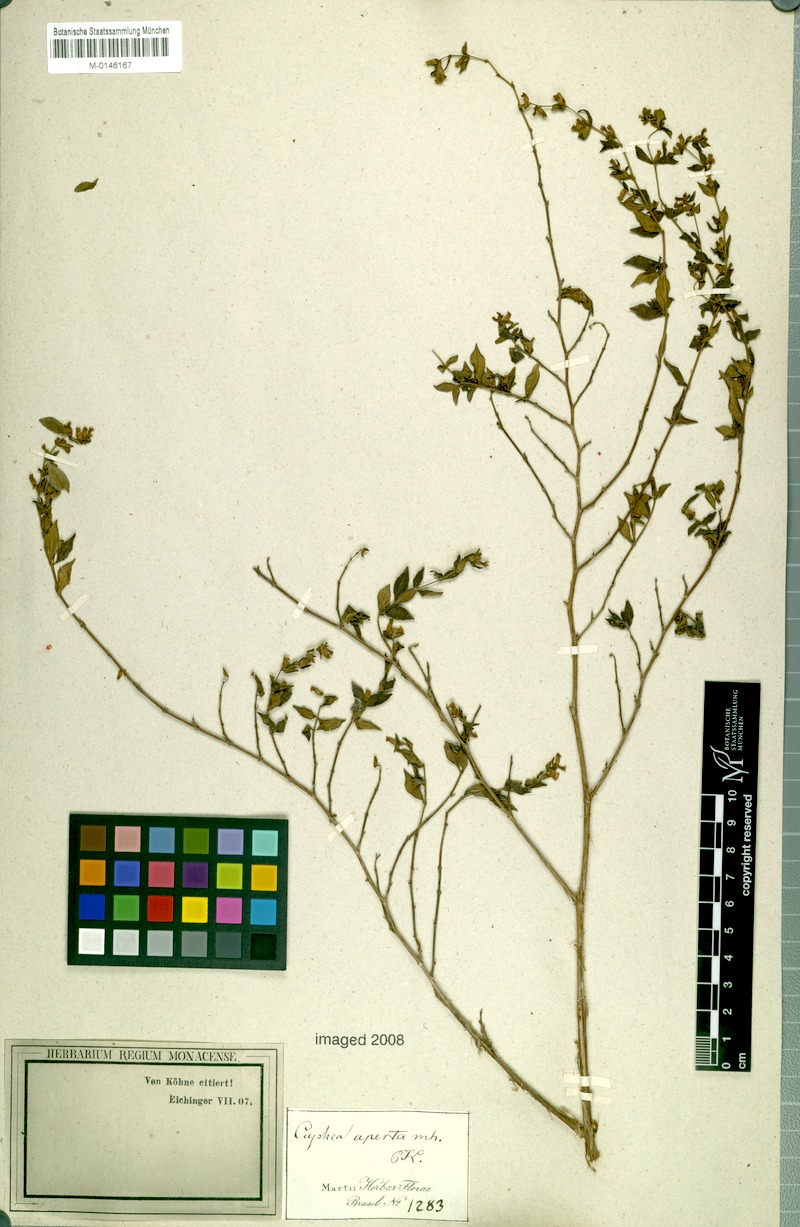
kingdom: Plantae
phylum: Tracheophyta
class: Magnoliopsida
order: Myrtales
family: Lythraceae
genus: Cuphea
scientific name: Cuphea aperta
